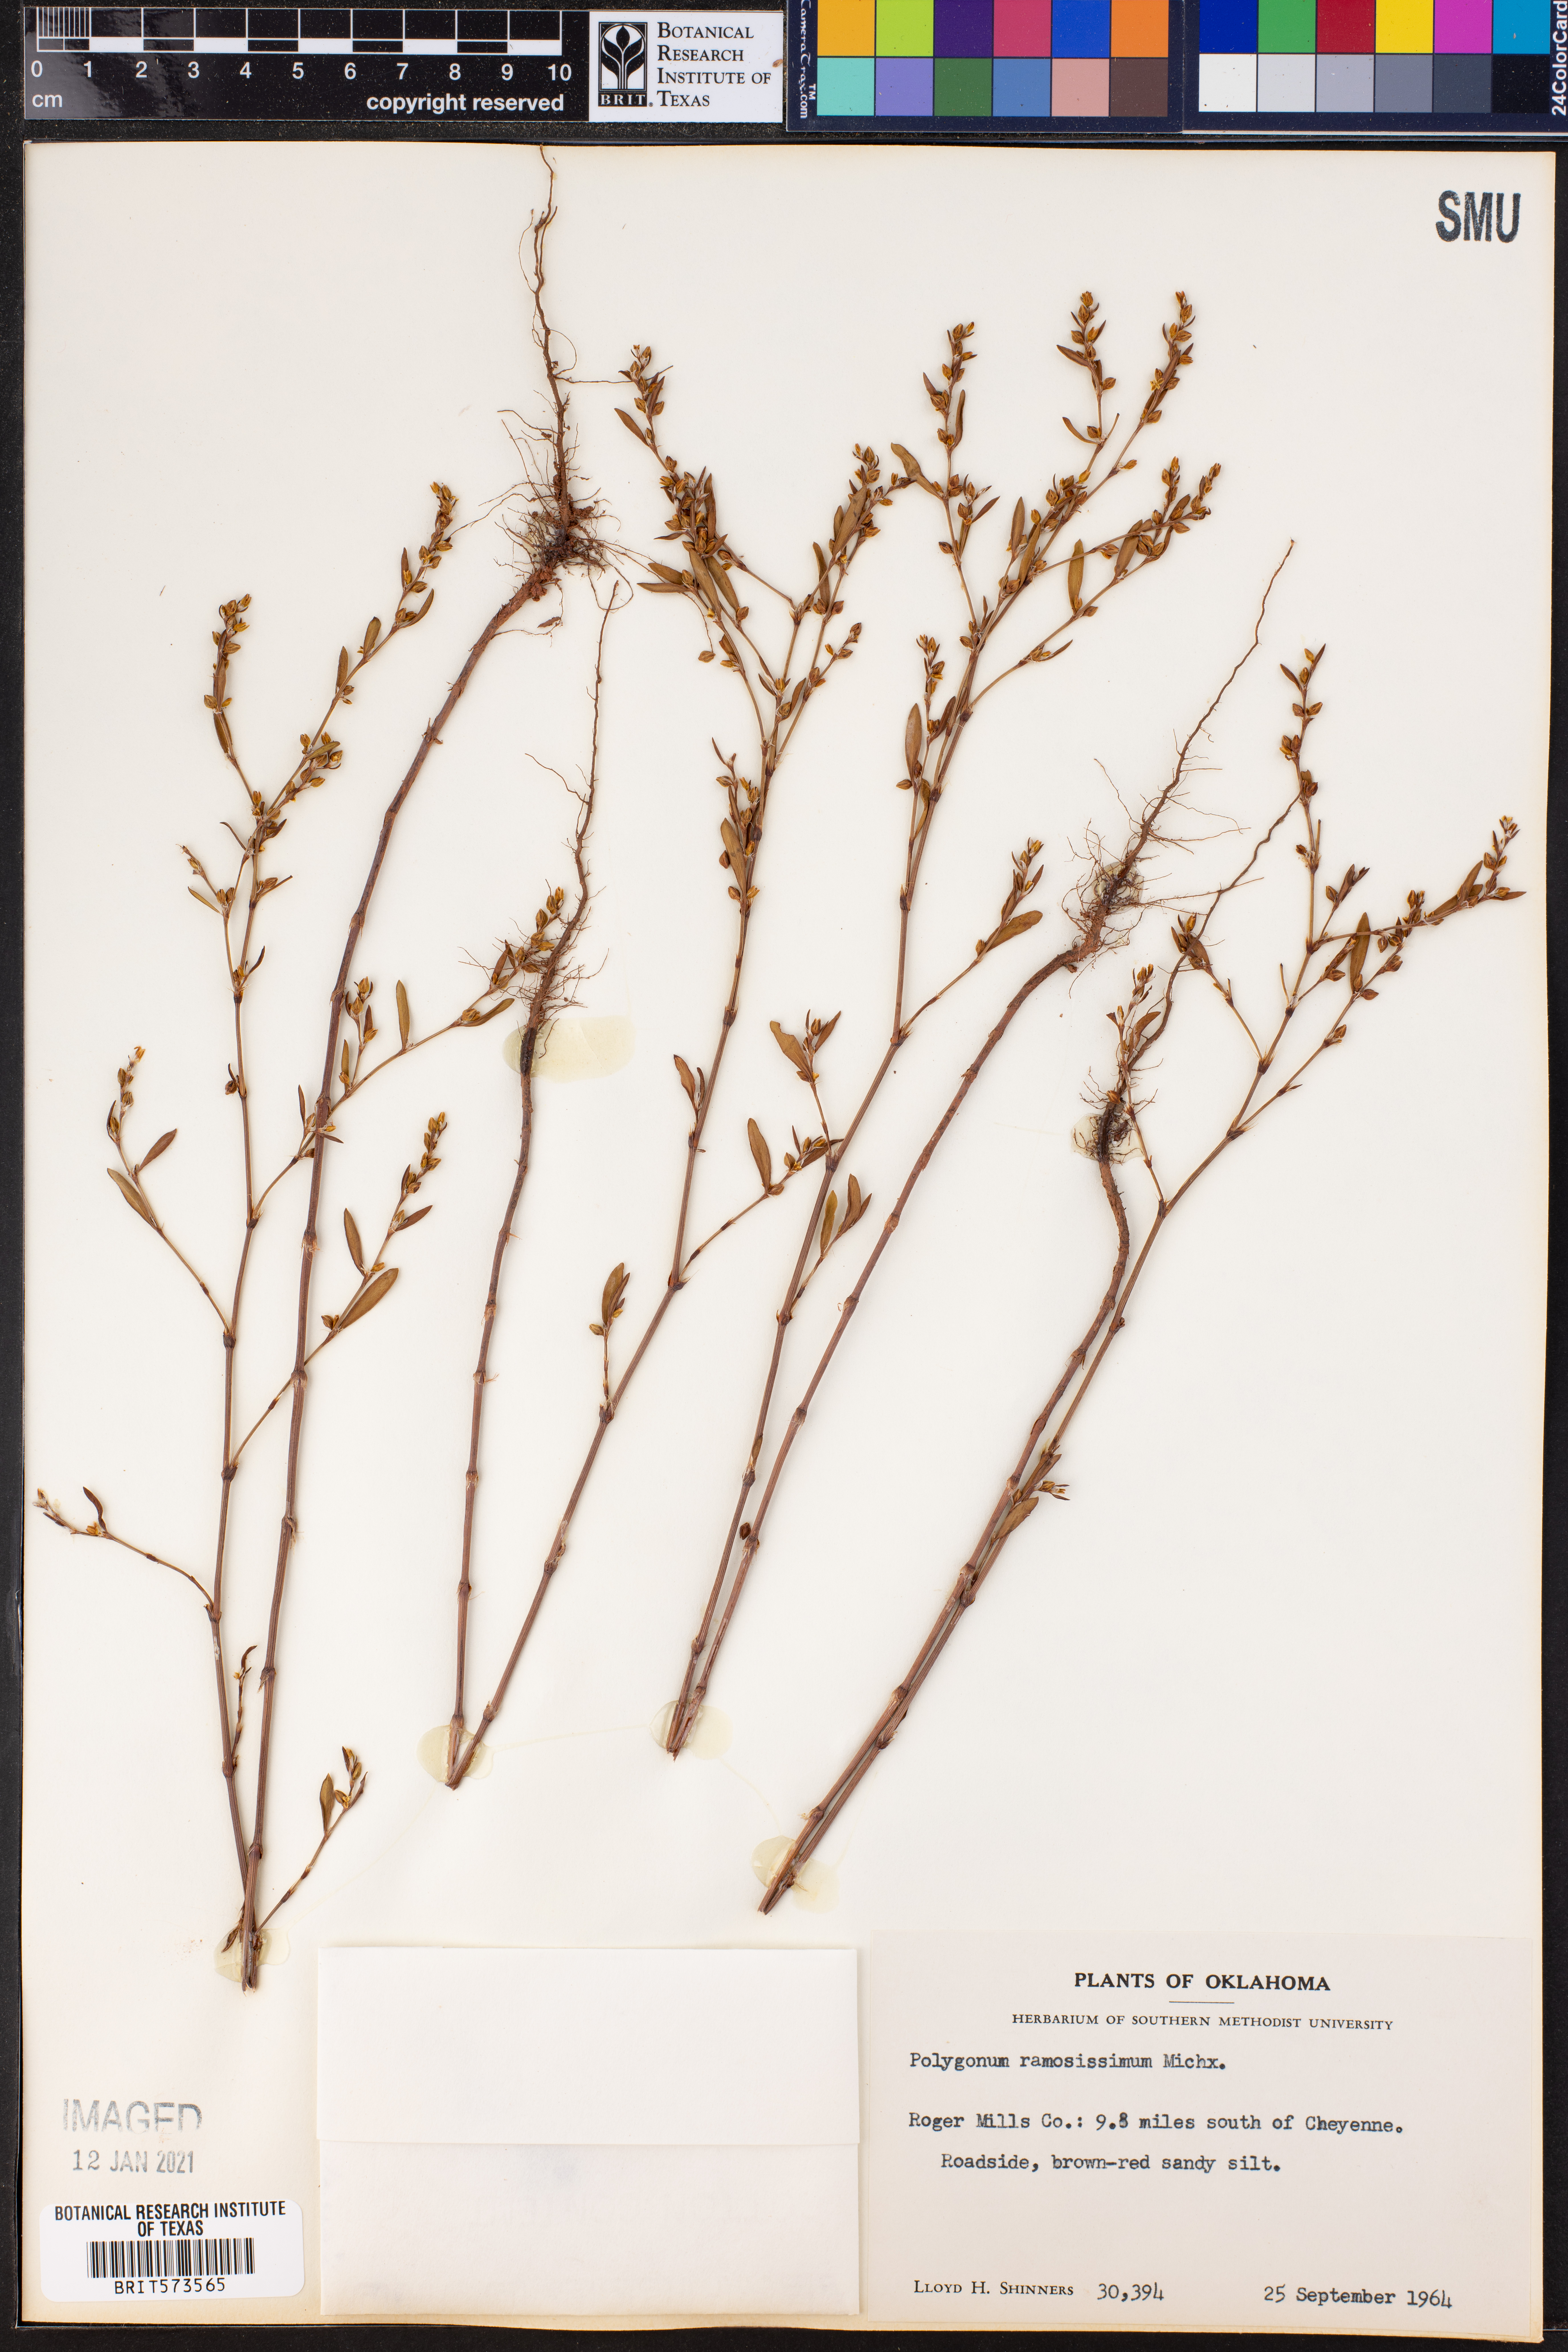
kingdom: Plantae
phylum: Tracheophyta
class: Magnoliopsida
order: Caryophyllales
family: Polygonaceae
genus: Polygonum
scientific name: Polygonum ramosissimum
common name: Bushy knotweed
